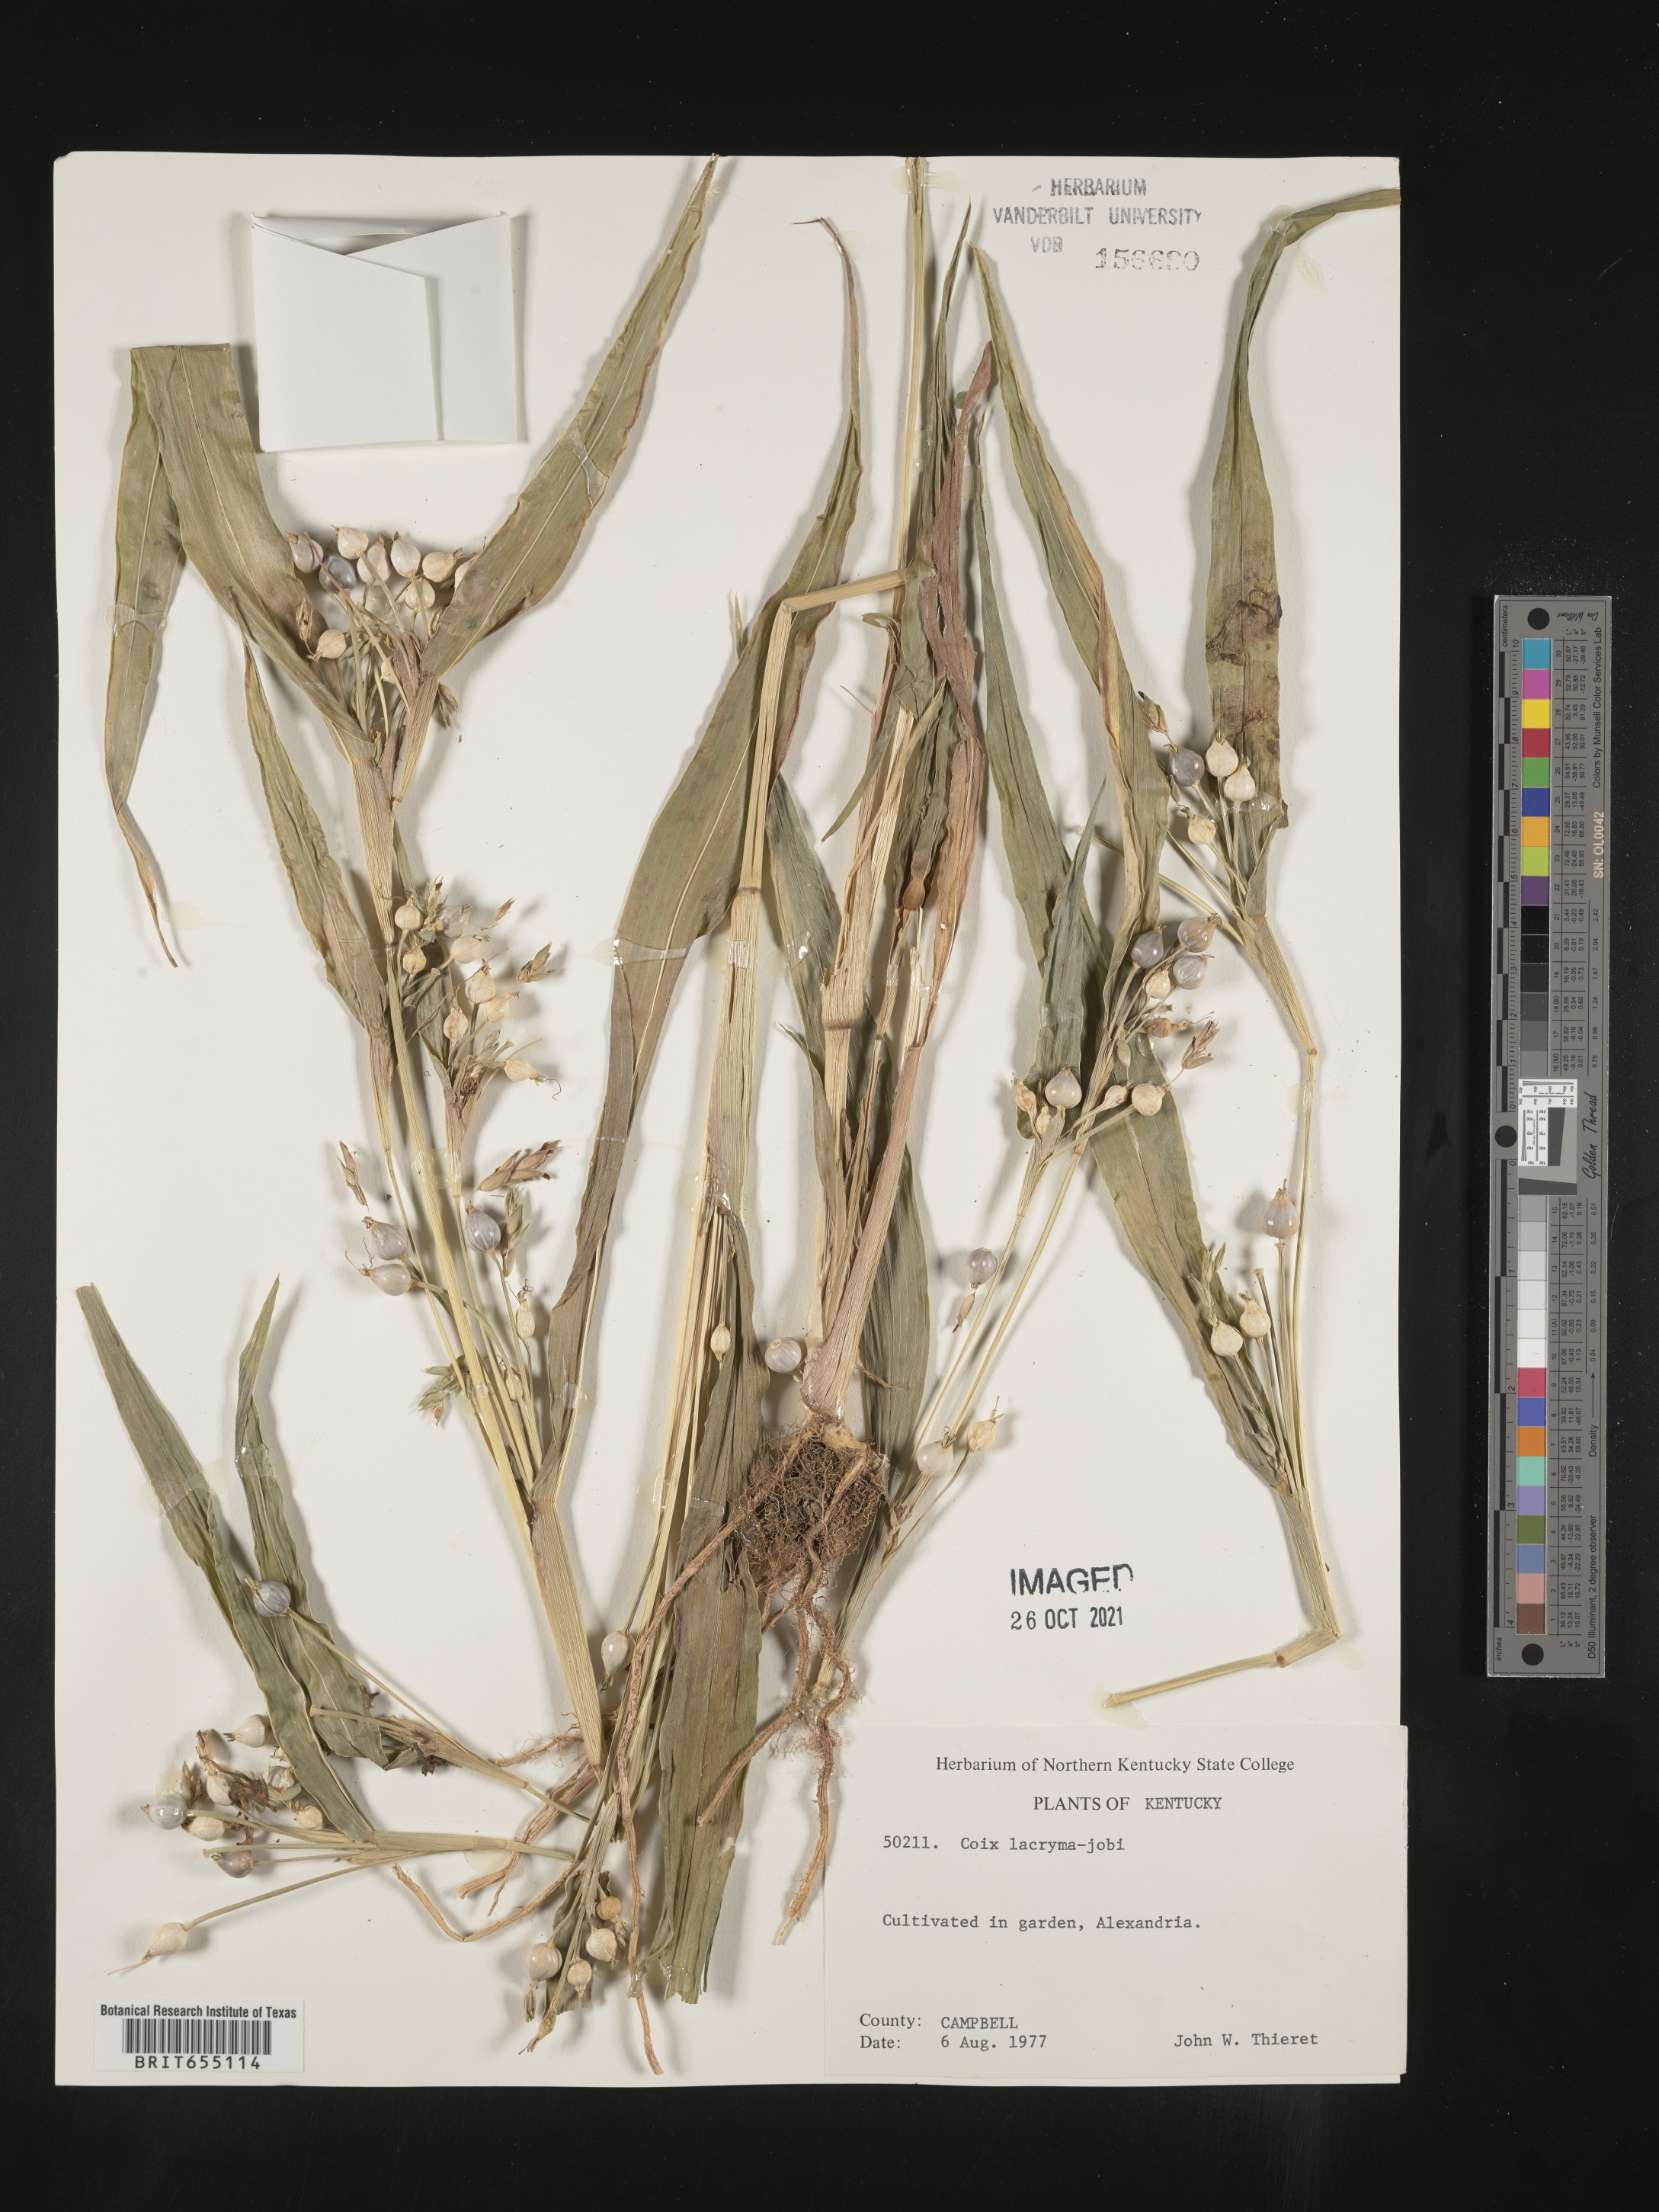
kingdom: Plantae
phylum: Tracheophyta
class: Liliopsida
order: Poales
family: Poaceae
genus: Coix
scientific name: Coix
